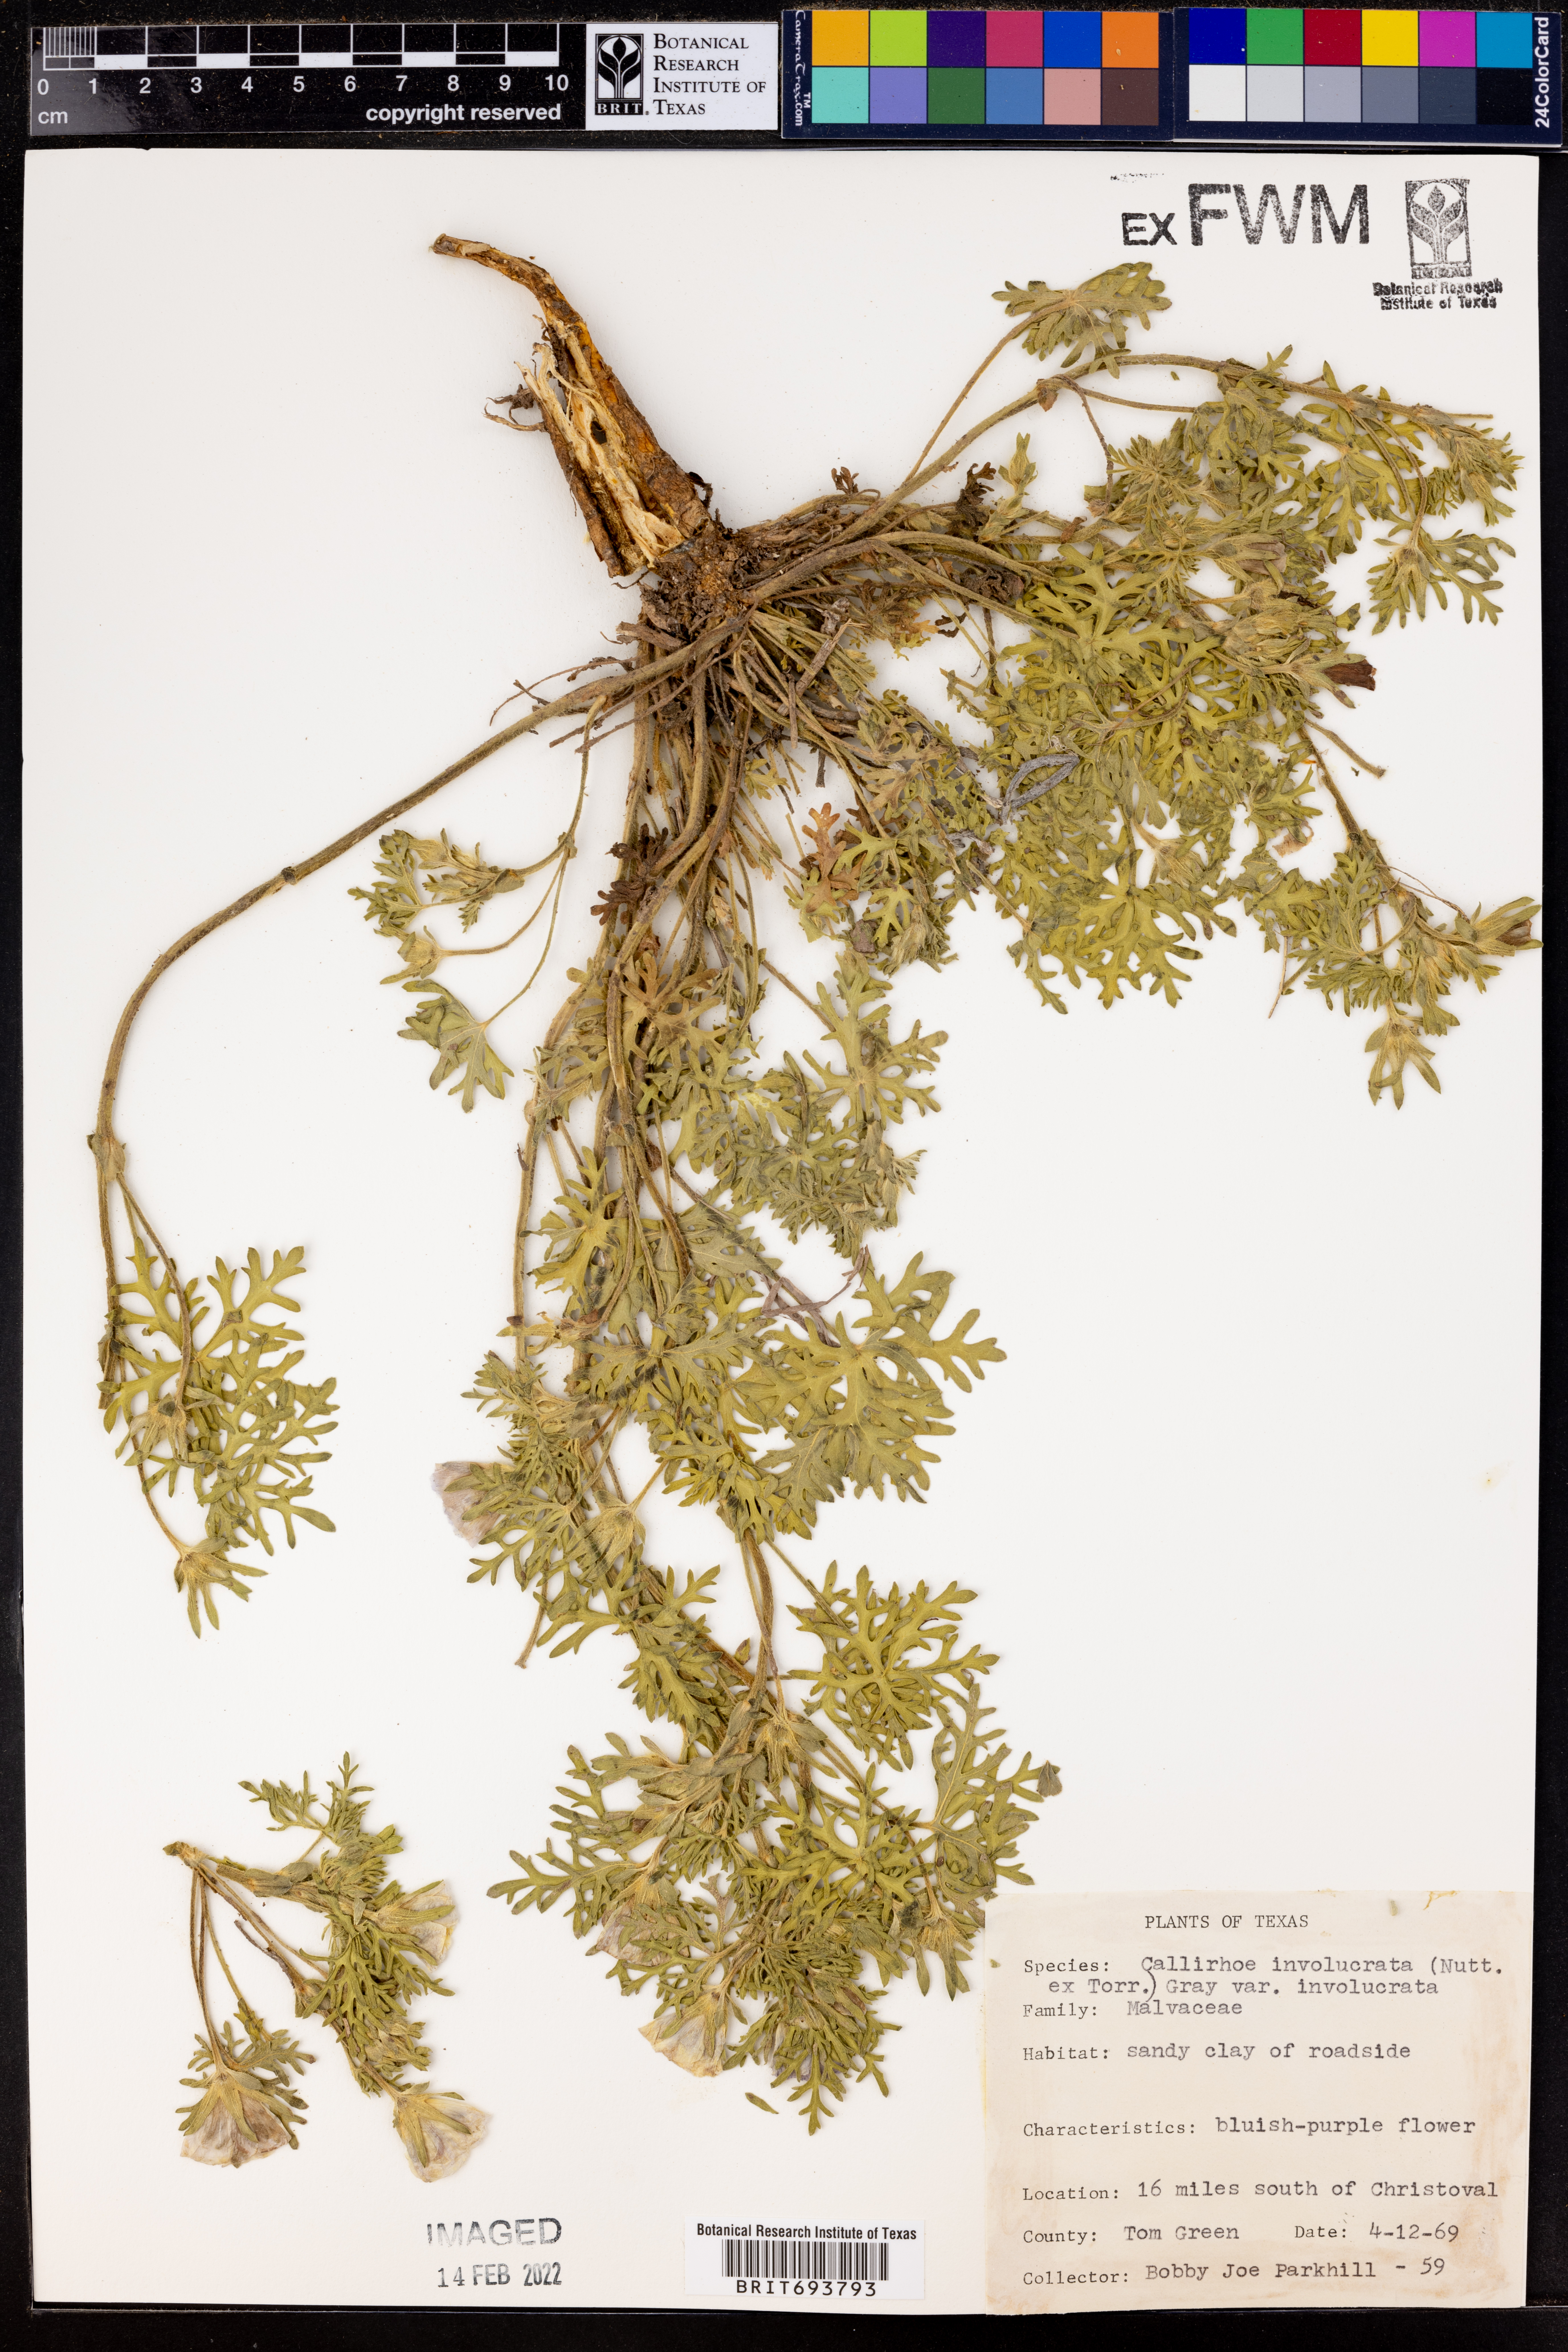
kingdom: Plantae
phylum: Tracheophyta
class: Magnoliopsida
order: Malvales
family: Malvaceae
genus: Callirhoe
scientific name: Callirhoe involucrata
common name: Purple poppy-mallow
